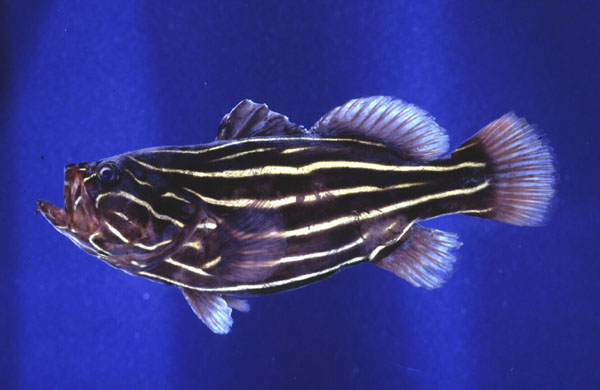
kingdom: Animalia
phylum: Chordata
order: Perciformes
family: Serranidae
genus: Grammistes
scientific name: Grammistes sexlineatus
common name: Sixline soapfish
